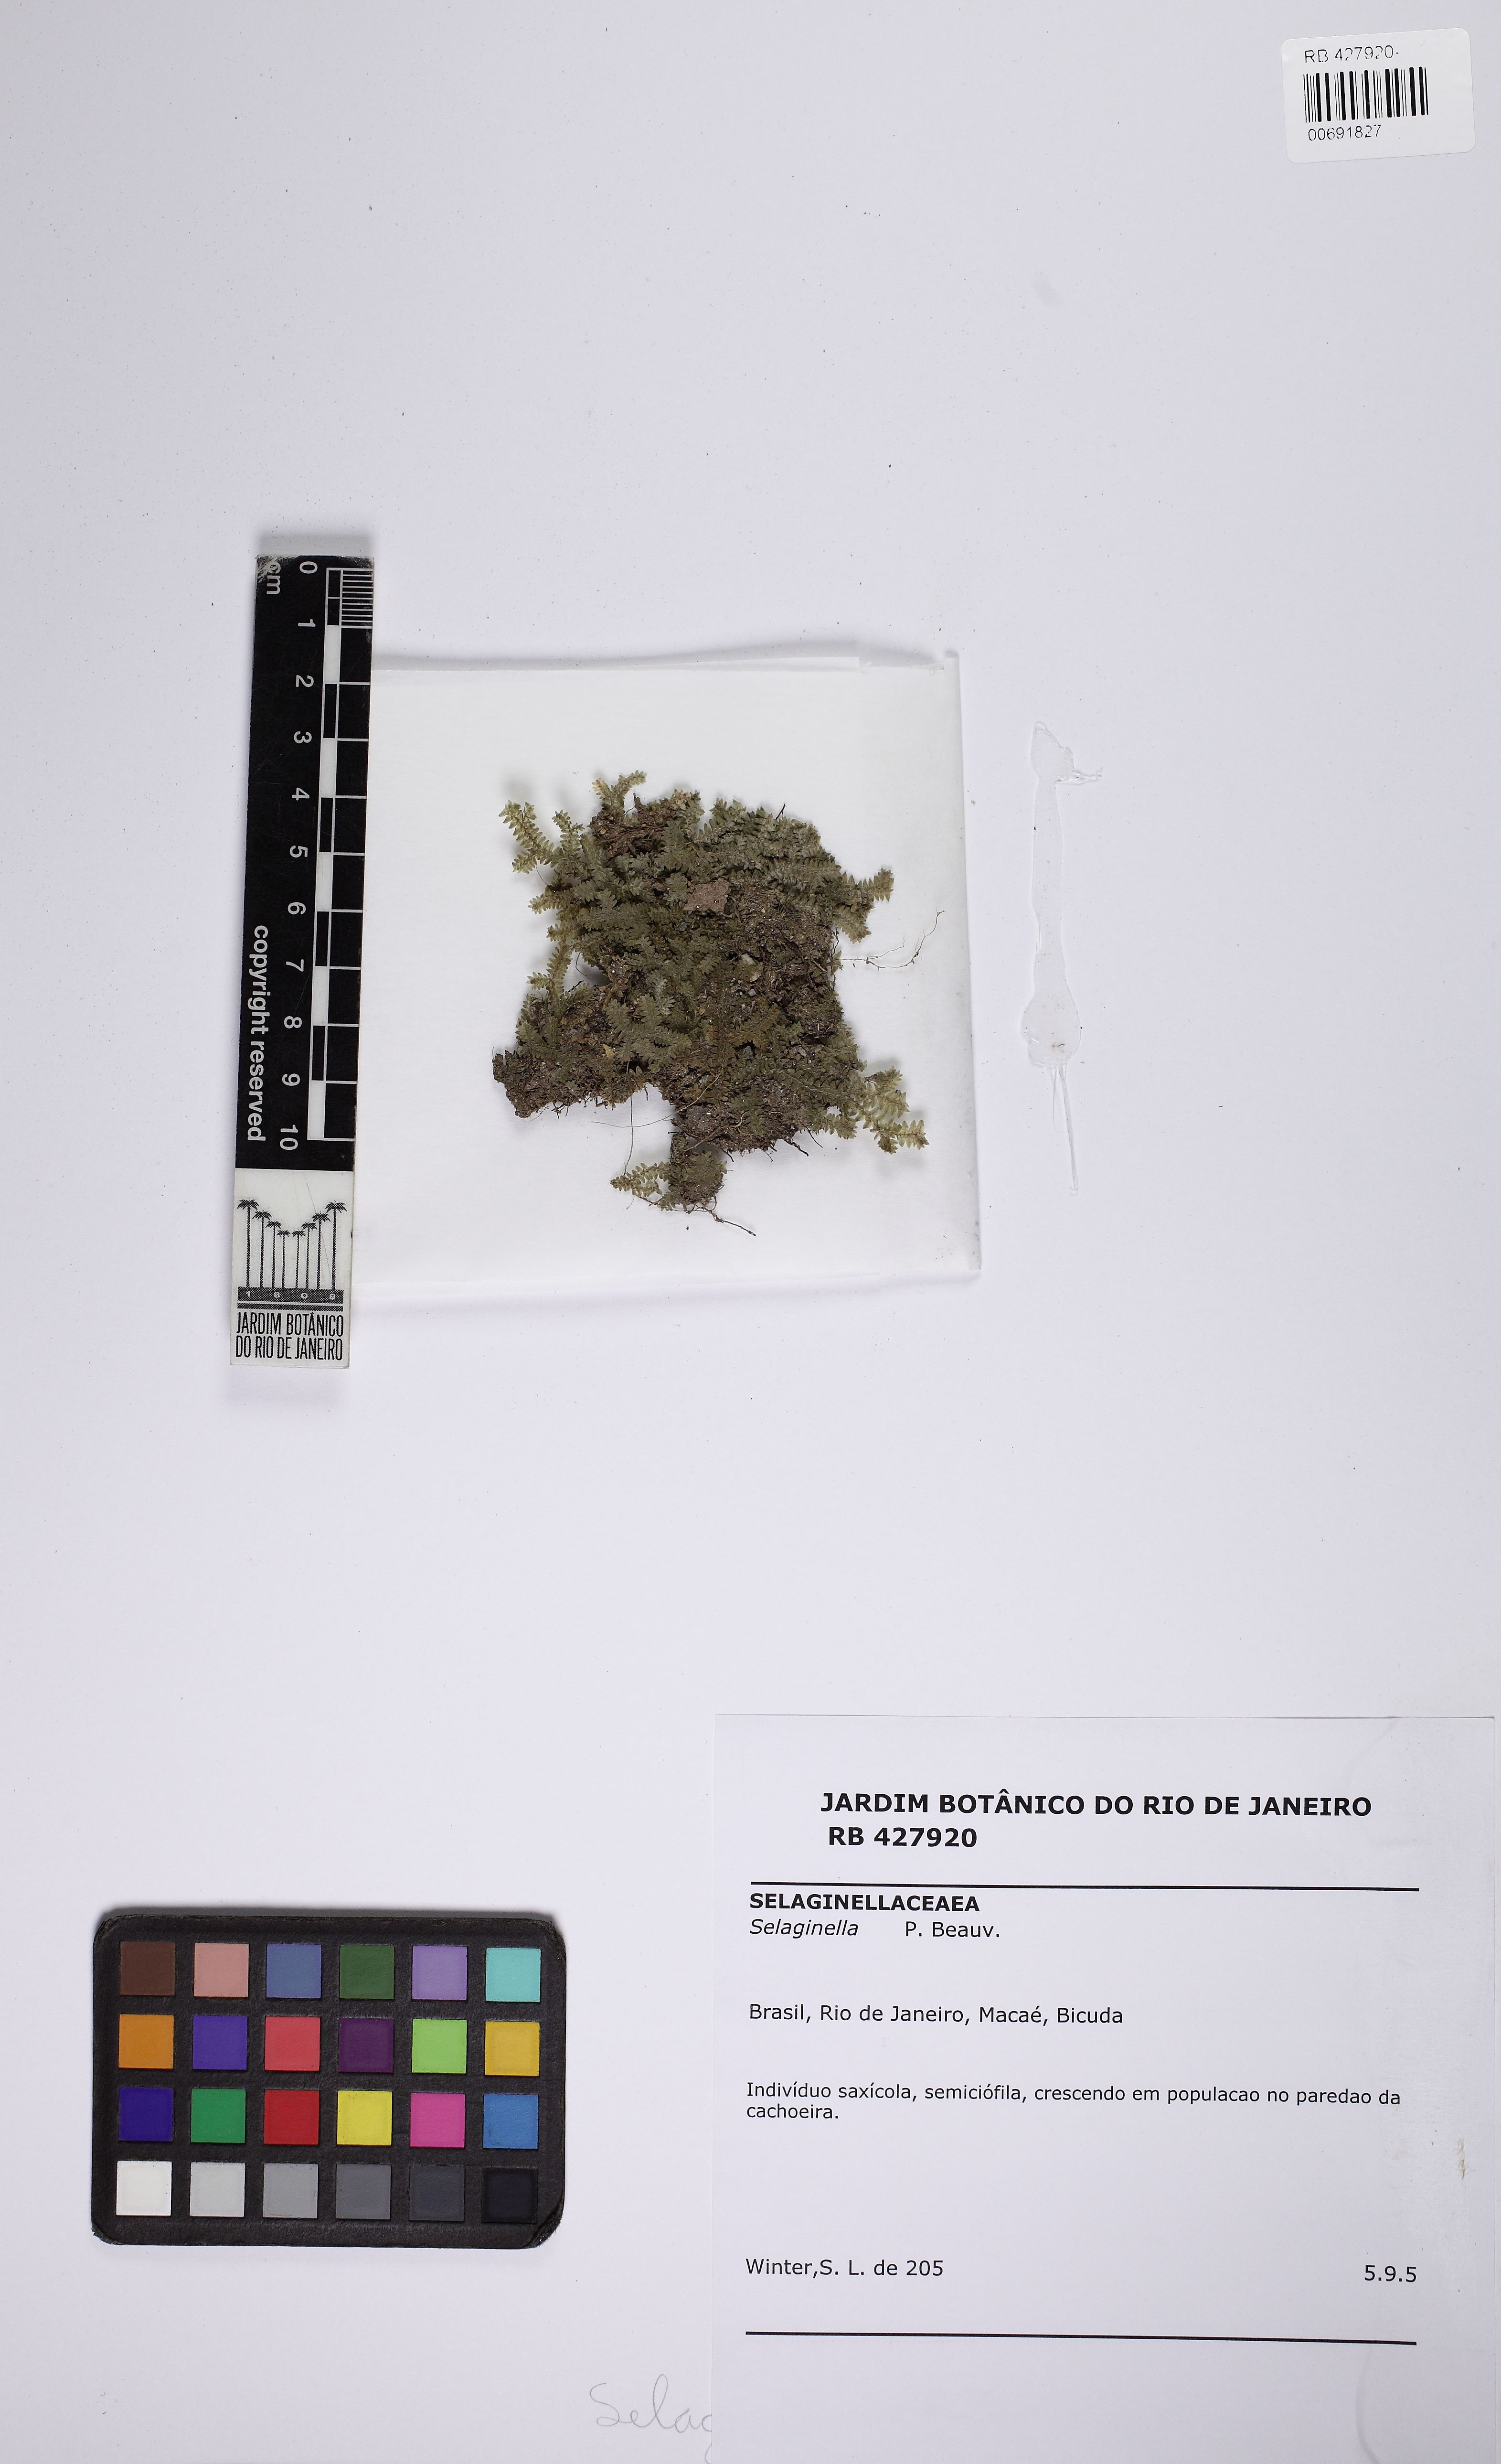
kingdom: Plantae
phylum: Tracheophyta
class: Lycopodiopsida
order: Selaginellales
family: Selaginellaceae
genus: Selaginella
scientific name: Selaginella jungermannioides
